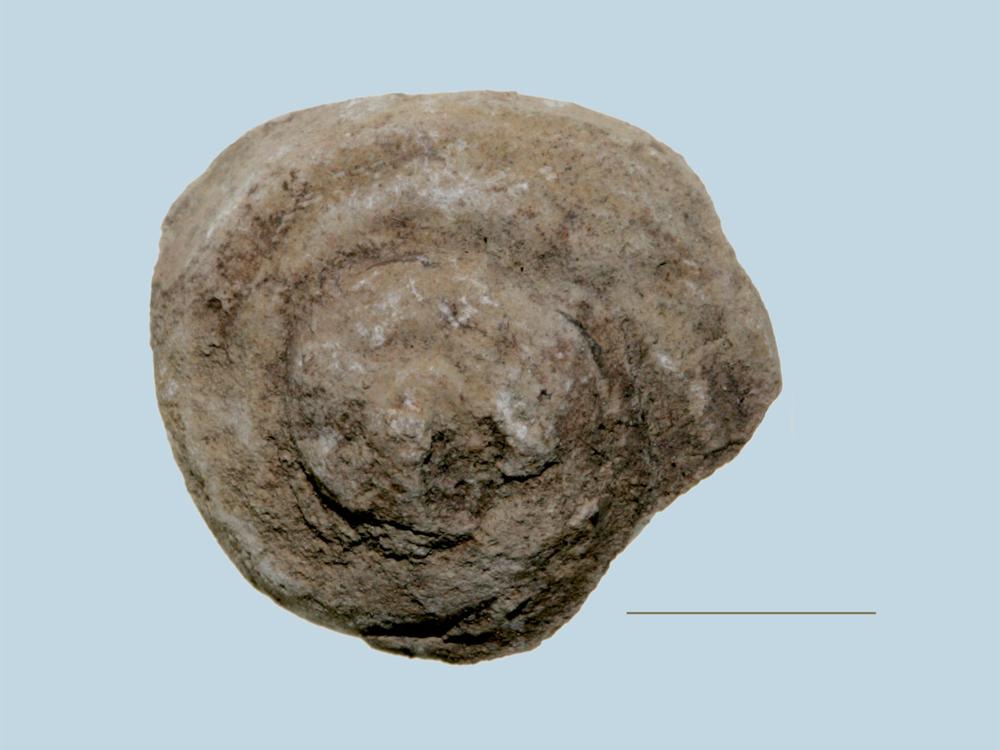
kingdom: Animalia
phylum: Mollusca
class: Gastropoda
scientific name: Gastropoda
